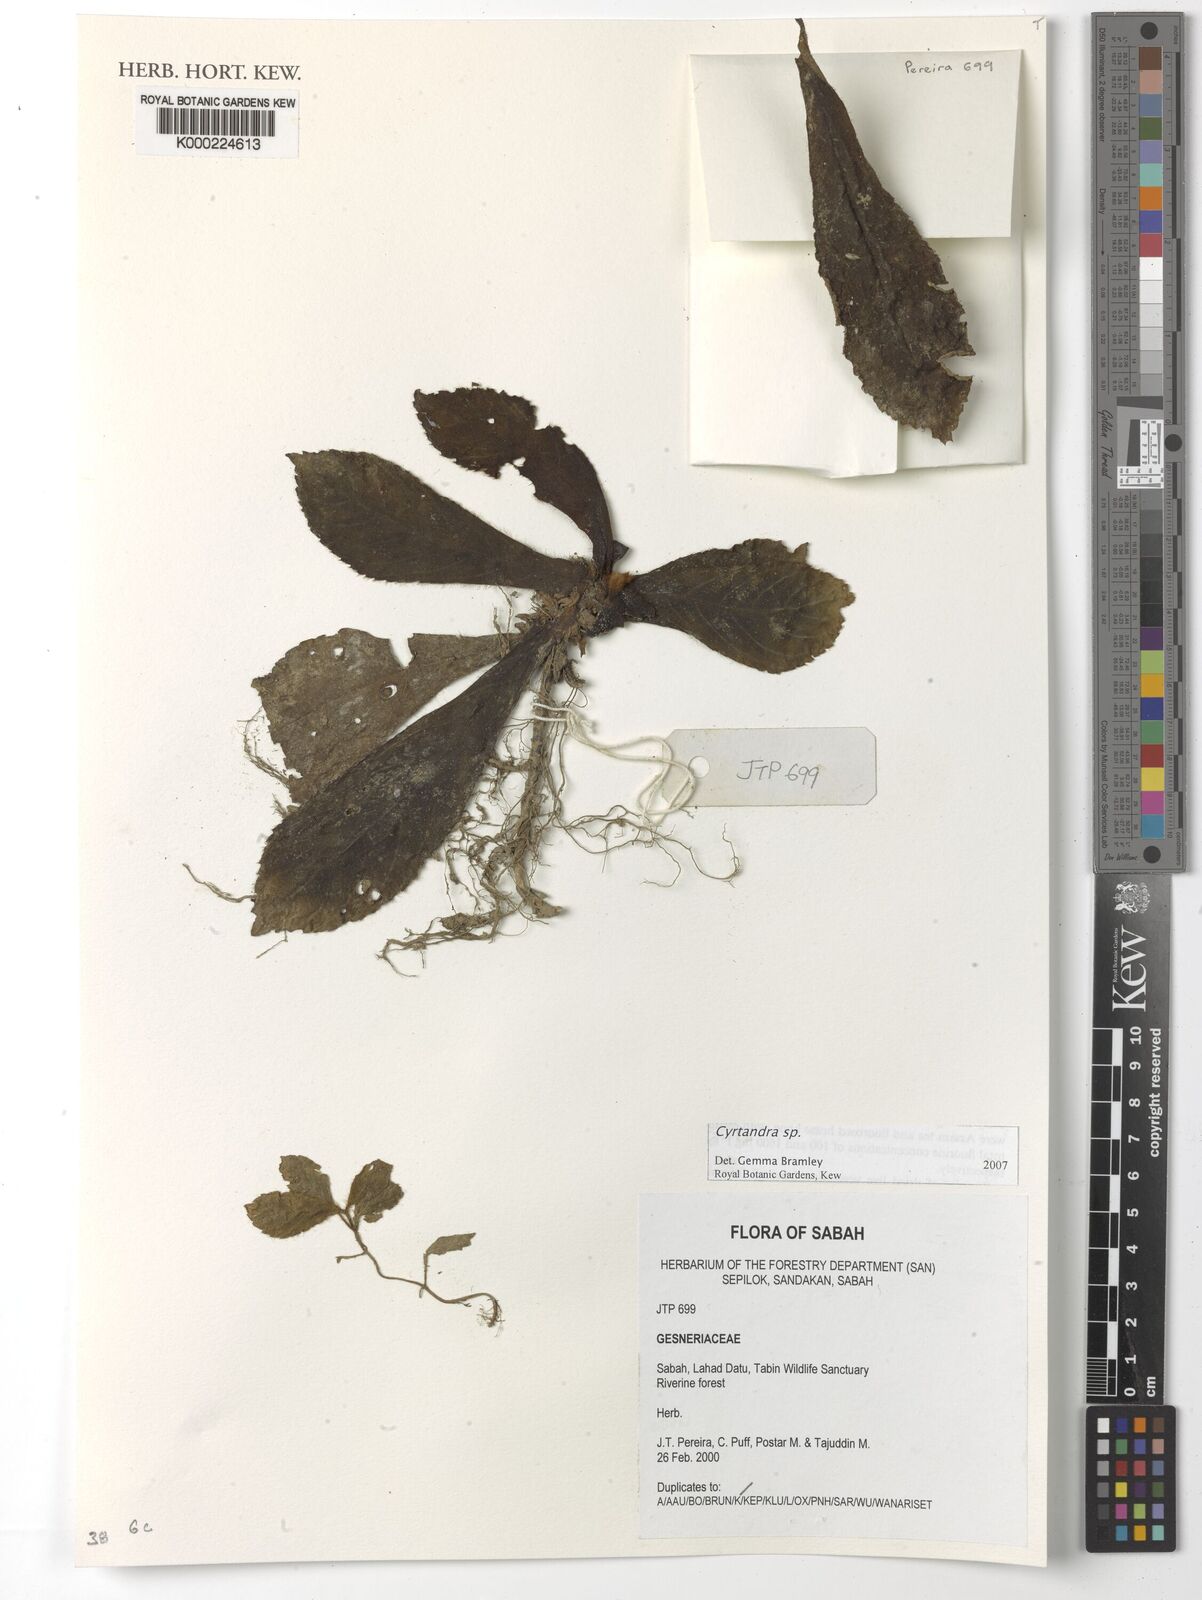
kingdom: Plantae
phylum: Tracheophyta
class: Magnoliopsida
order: Lamiales
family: Gesneriaceae
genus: Cyrtandra
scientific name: Cyrtandra
